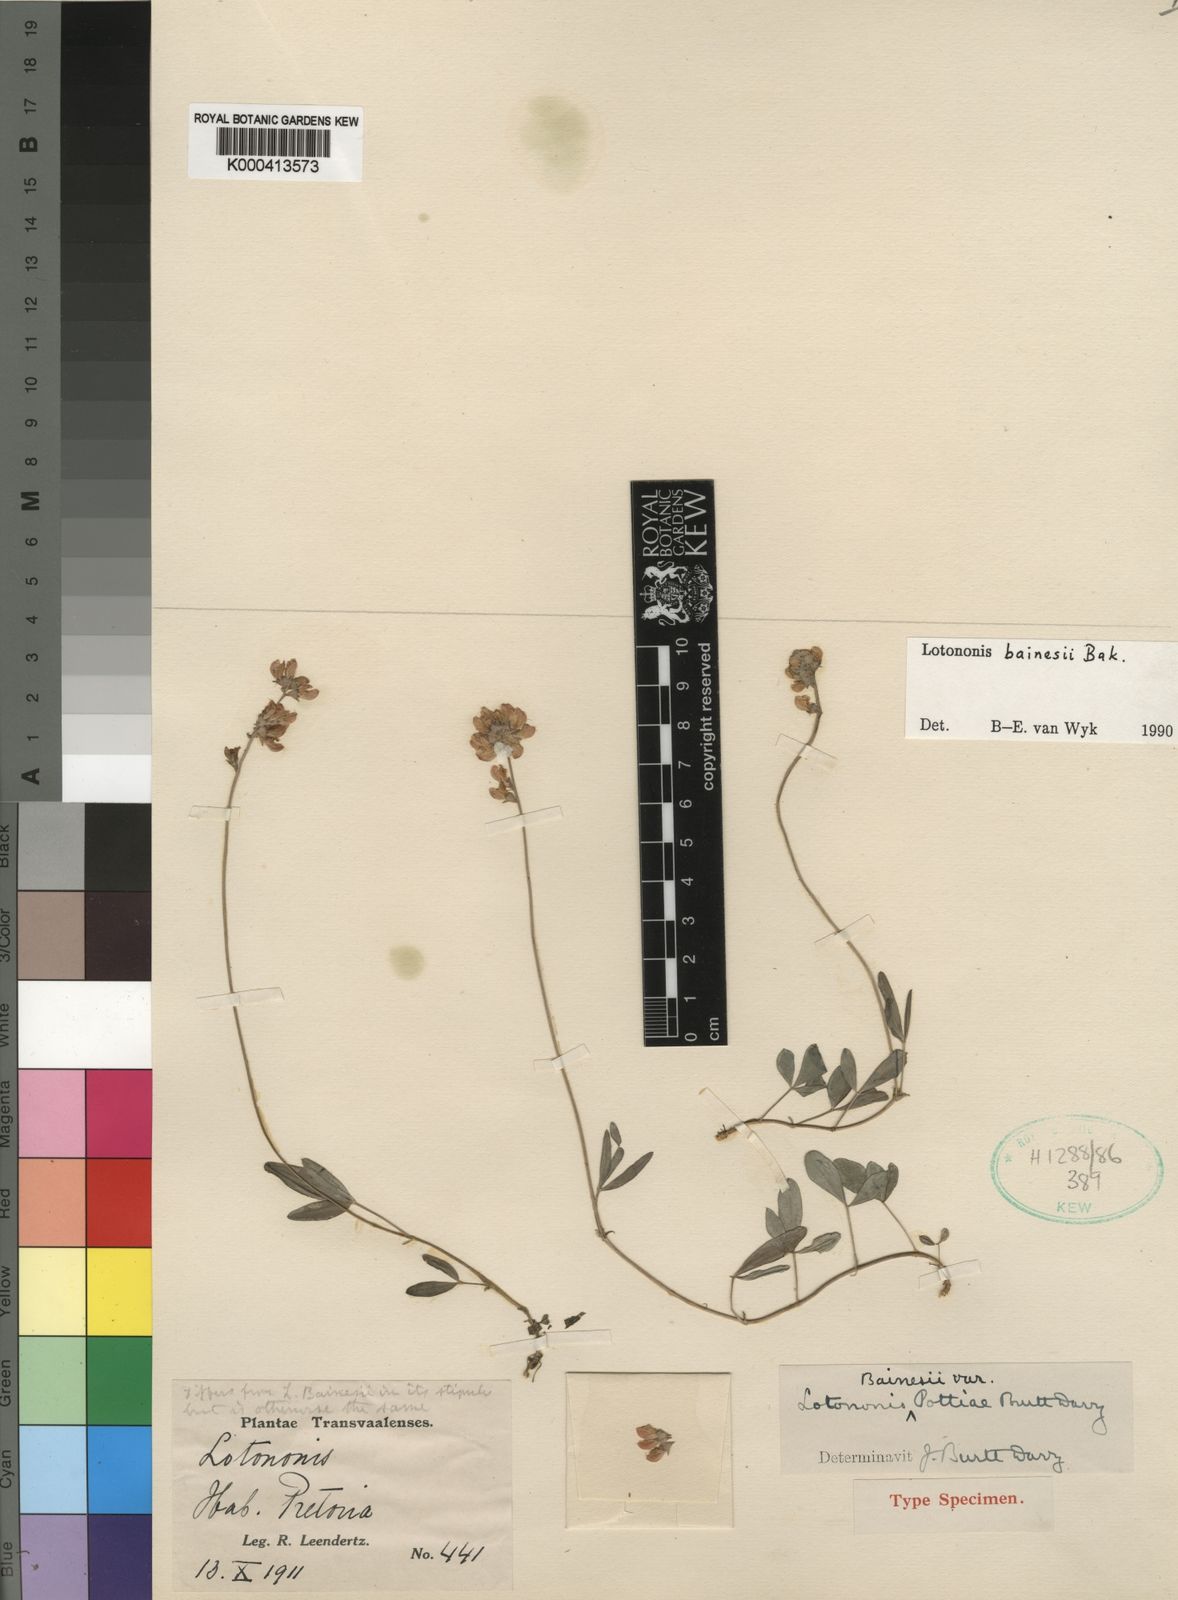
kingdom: Plantae
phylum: Tracheophyta
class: Magnoliopsida
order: Fabales
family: Fabaceae
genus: Listia
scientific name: Listia bainesii
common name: Lotononis
